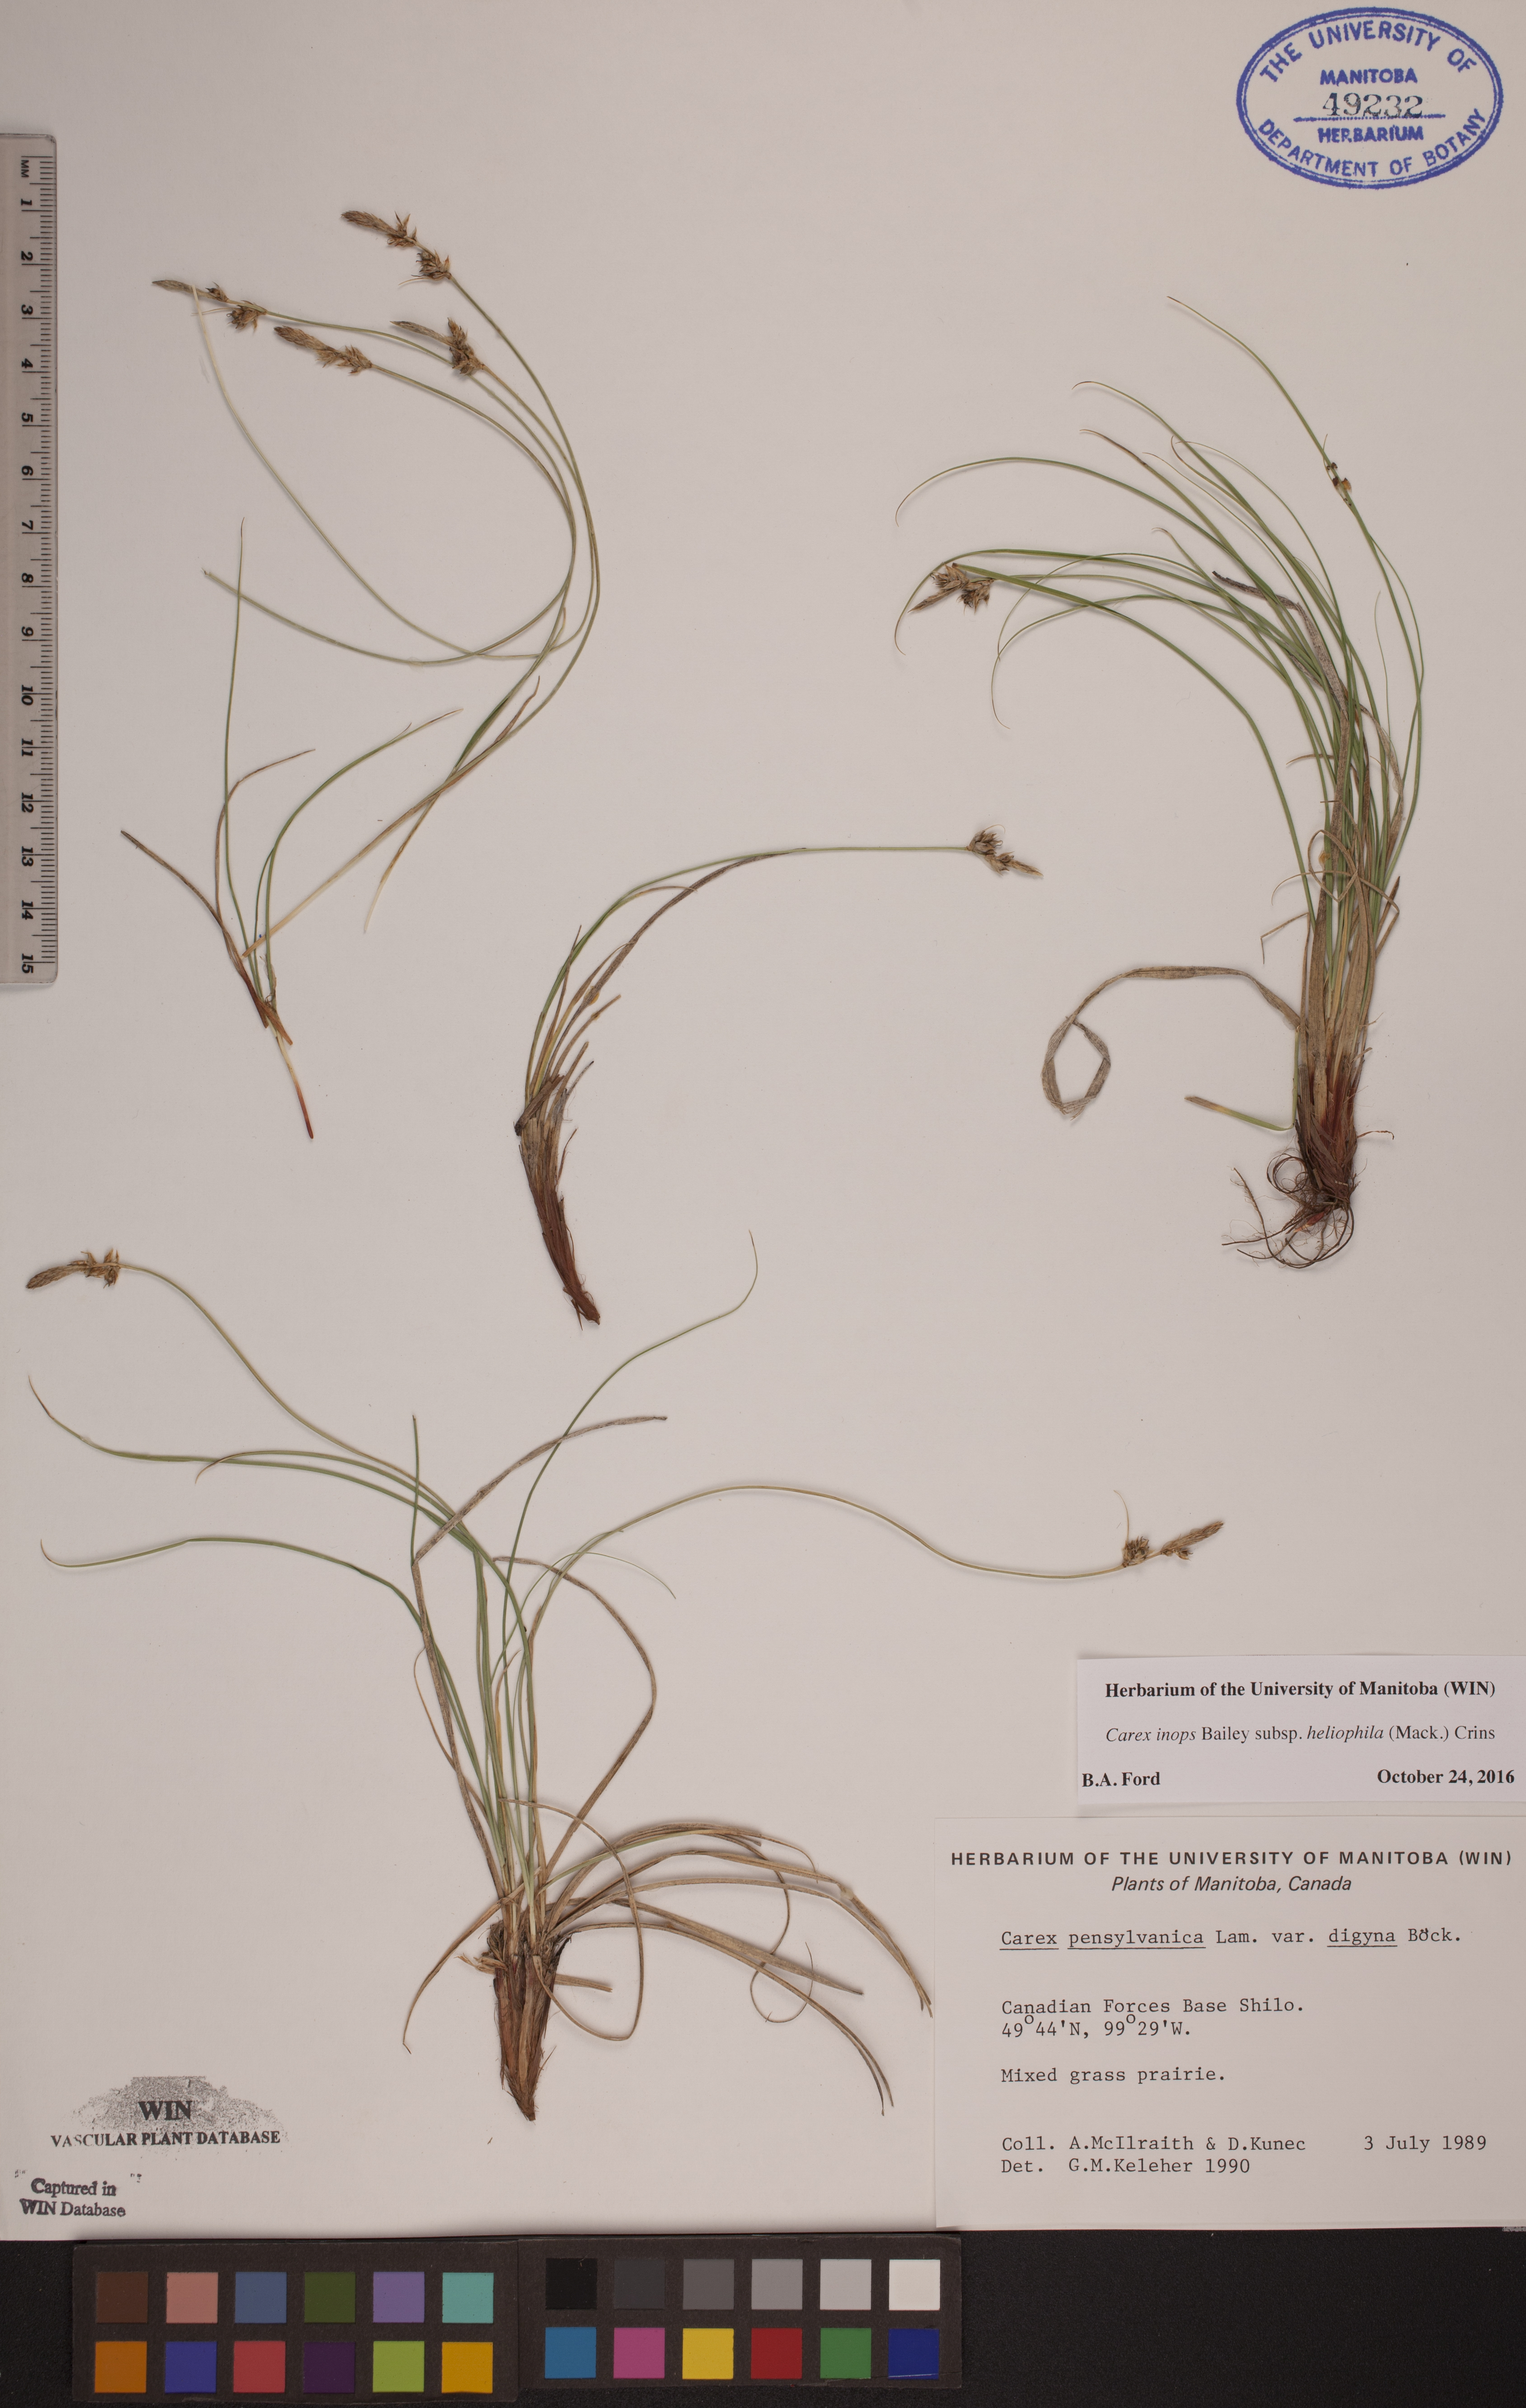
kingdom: Plantae
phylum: Tracheophyta
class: Liliopsida
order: Poales
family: Cyperaceae
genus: Carex
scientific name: Carex inops
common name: Long-stolon sedge
